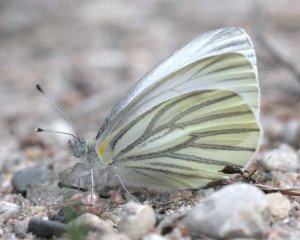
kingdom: Animalia
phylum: Arthropoda
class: Insecta
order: Lepidoptera
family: Pieridae
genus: Pieris
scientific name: Pieris oleracea
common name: Mustard White
